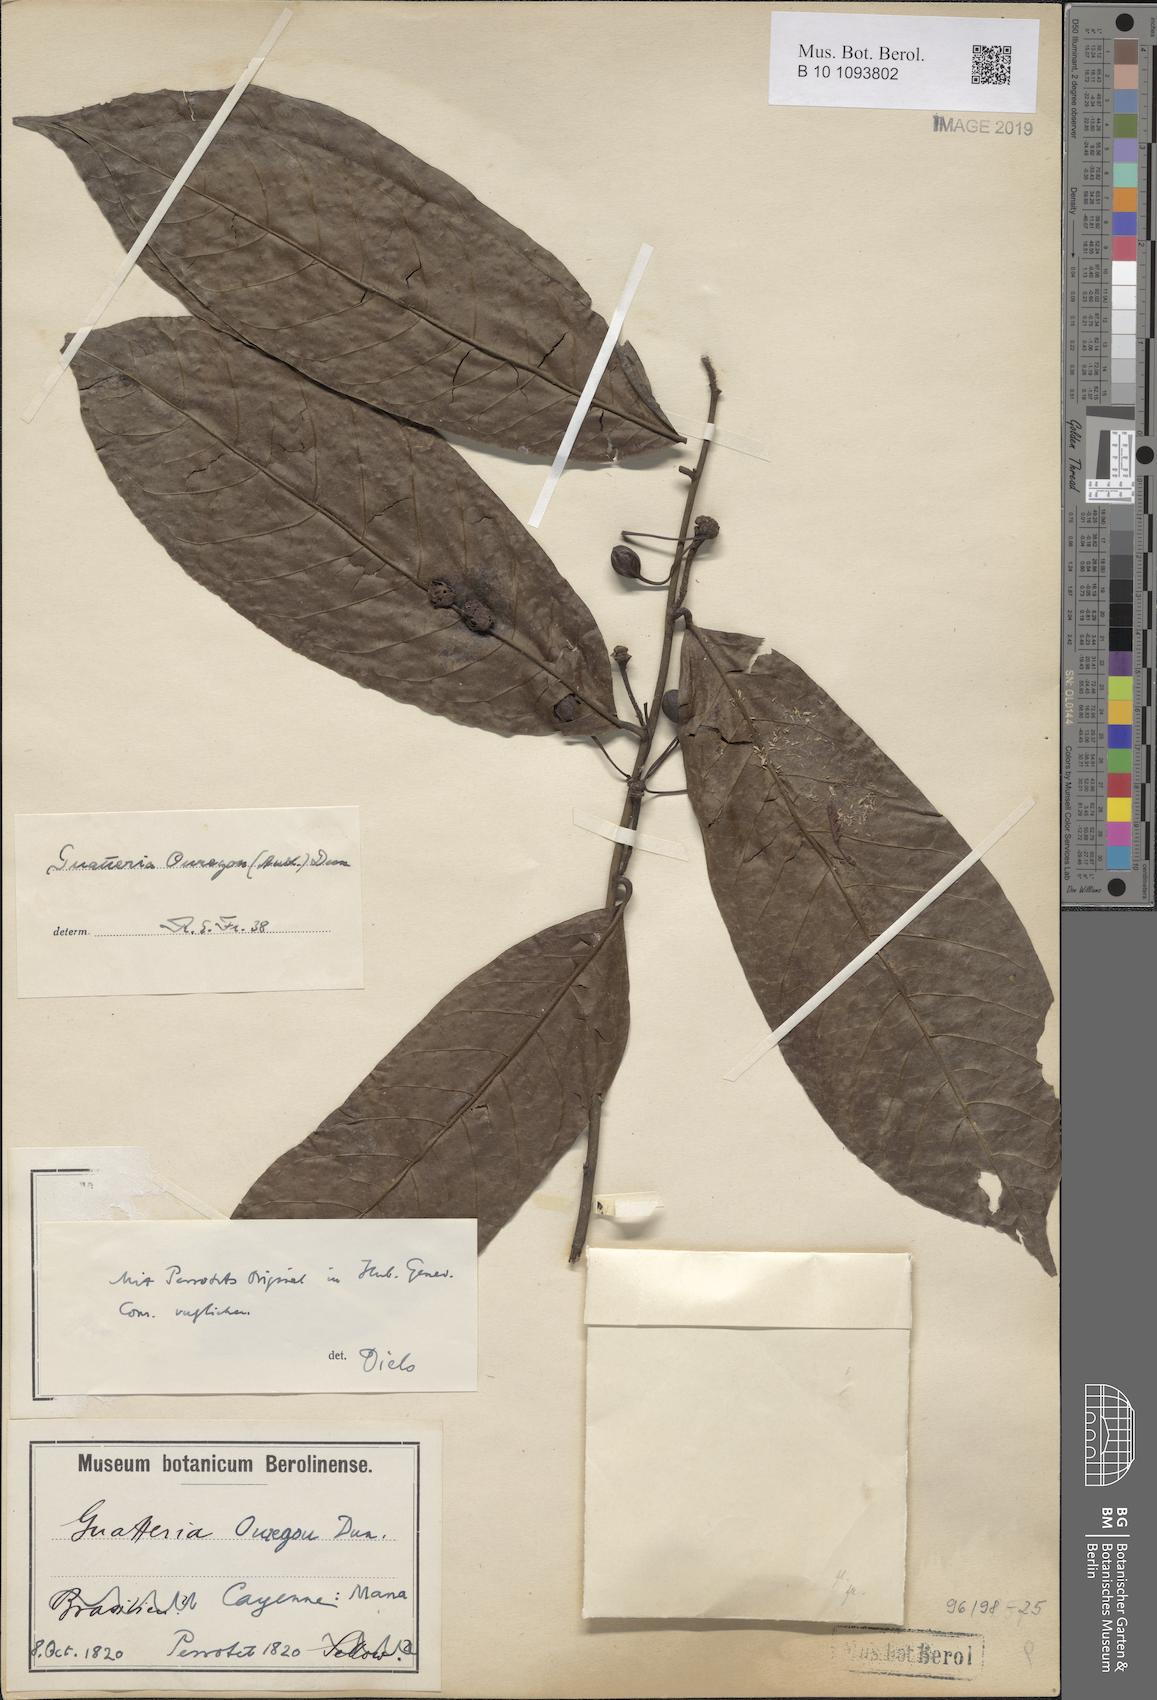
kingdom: Plantae
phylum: Tracheophyta
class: Magnoliopsida
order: Magnoliales
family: Annonaceae
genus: Guatteria
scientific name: Guatteria ouregou
